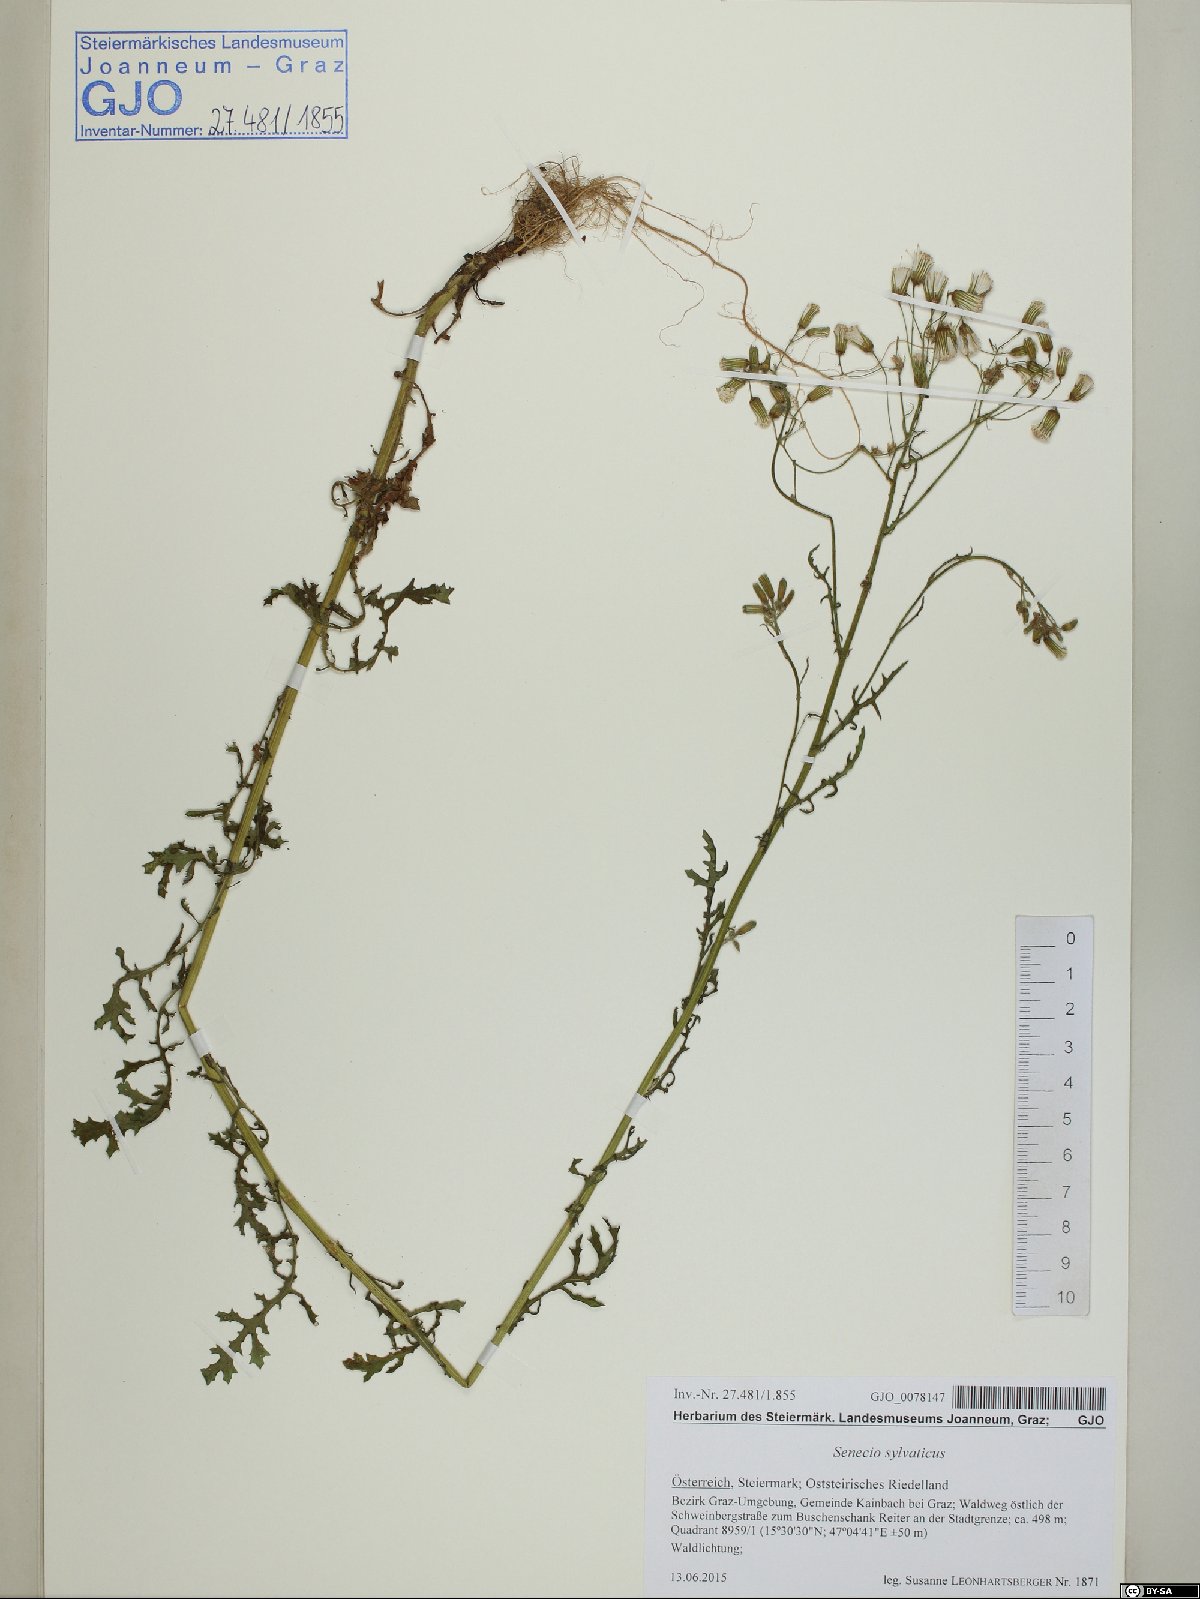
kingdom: Plantae
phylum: Tracheophyta
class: Magnoliopsida
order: Asterales
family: Asteraceae
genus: Senecio
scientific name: Senecio sylvaticus
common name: Woodland ragwort
